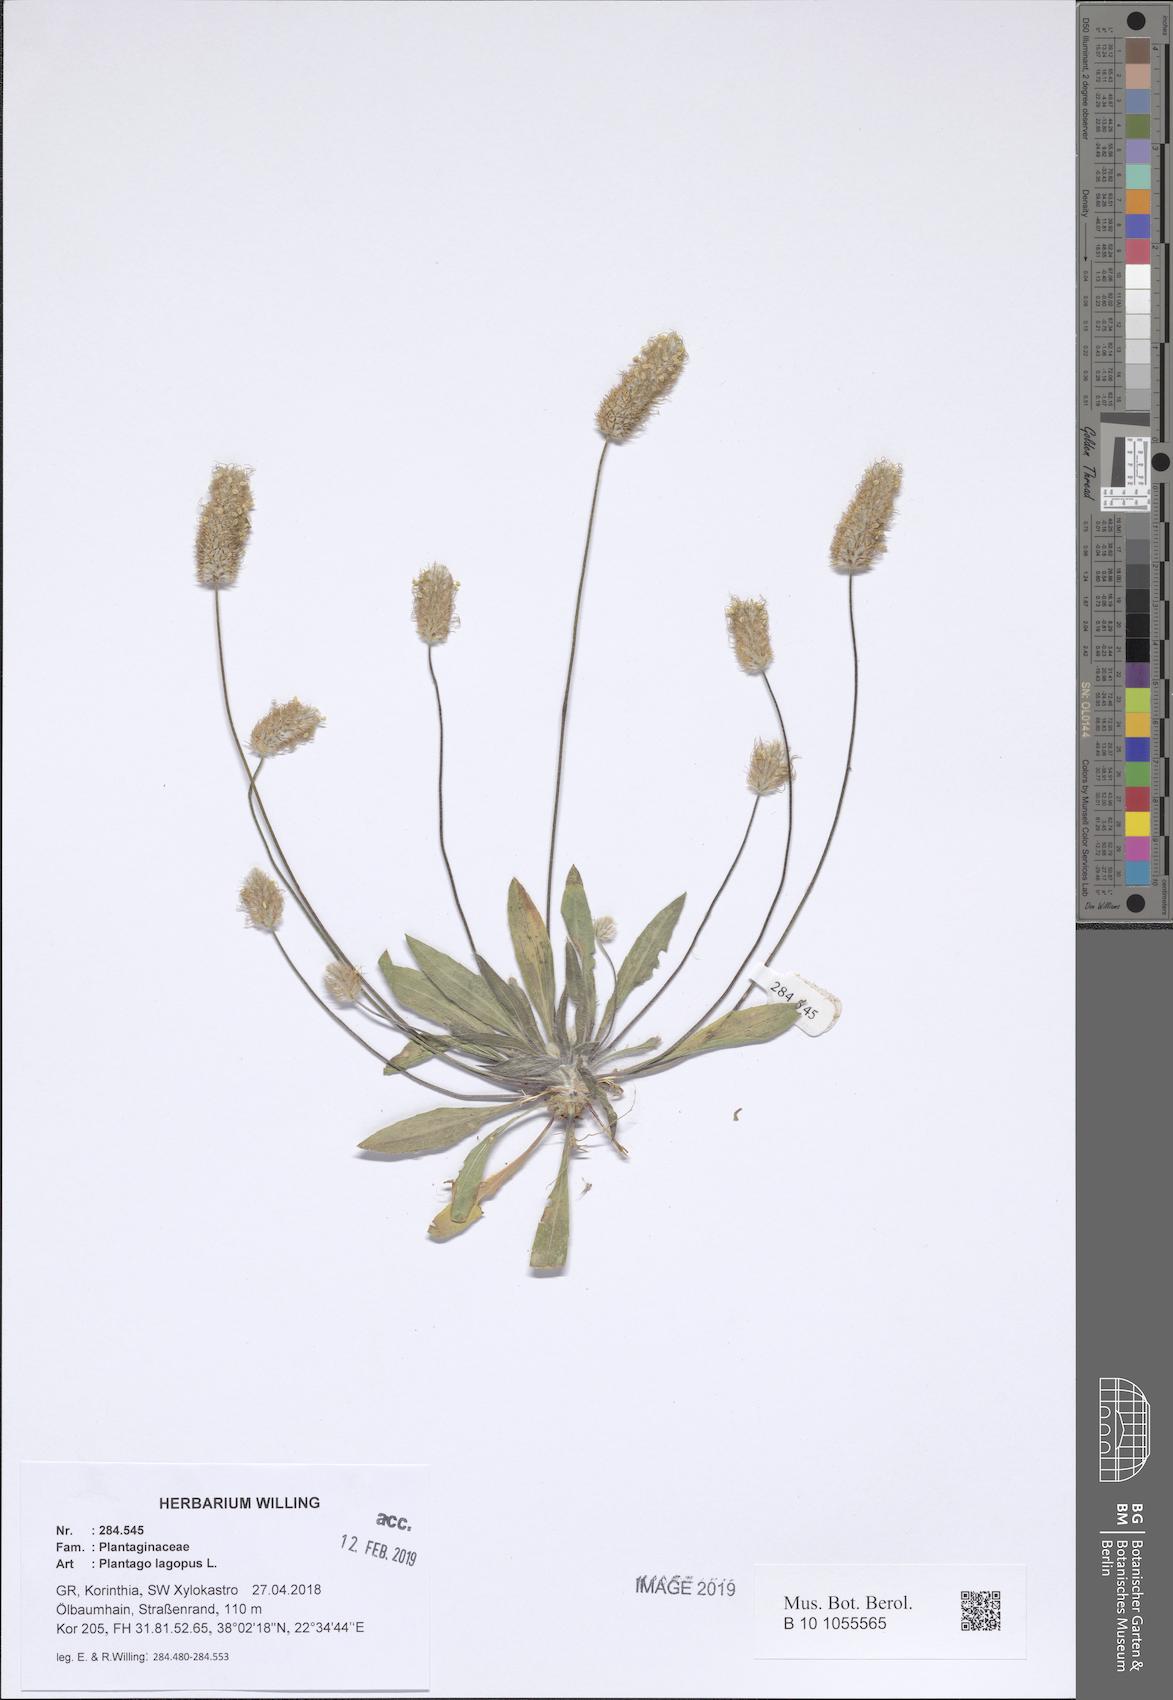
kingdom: Plantae
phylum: Tracheophyta
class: Magnoliopsida
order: Lamiales
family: Plantaginaceae
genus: Plantago
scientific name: Plantago lagopus
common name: Hare-foot plantain
